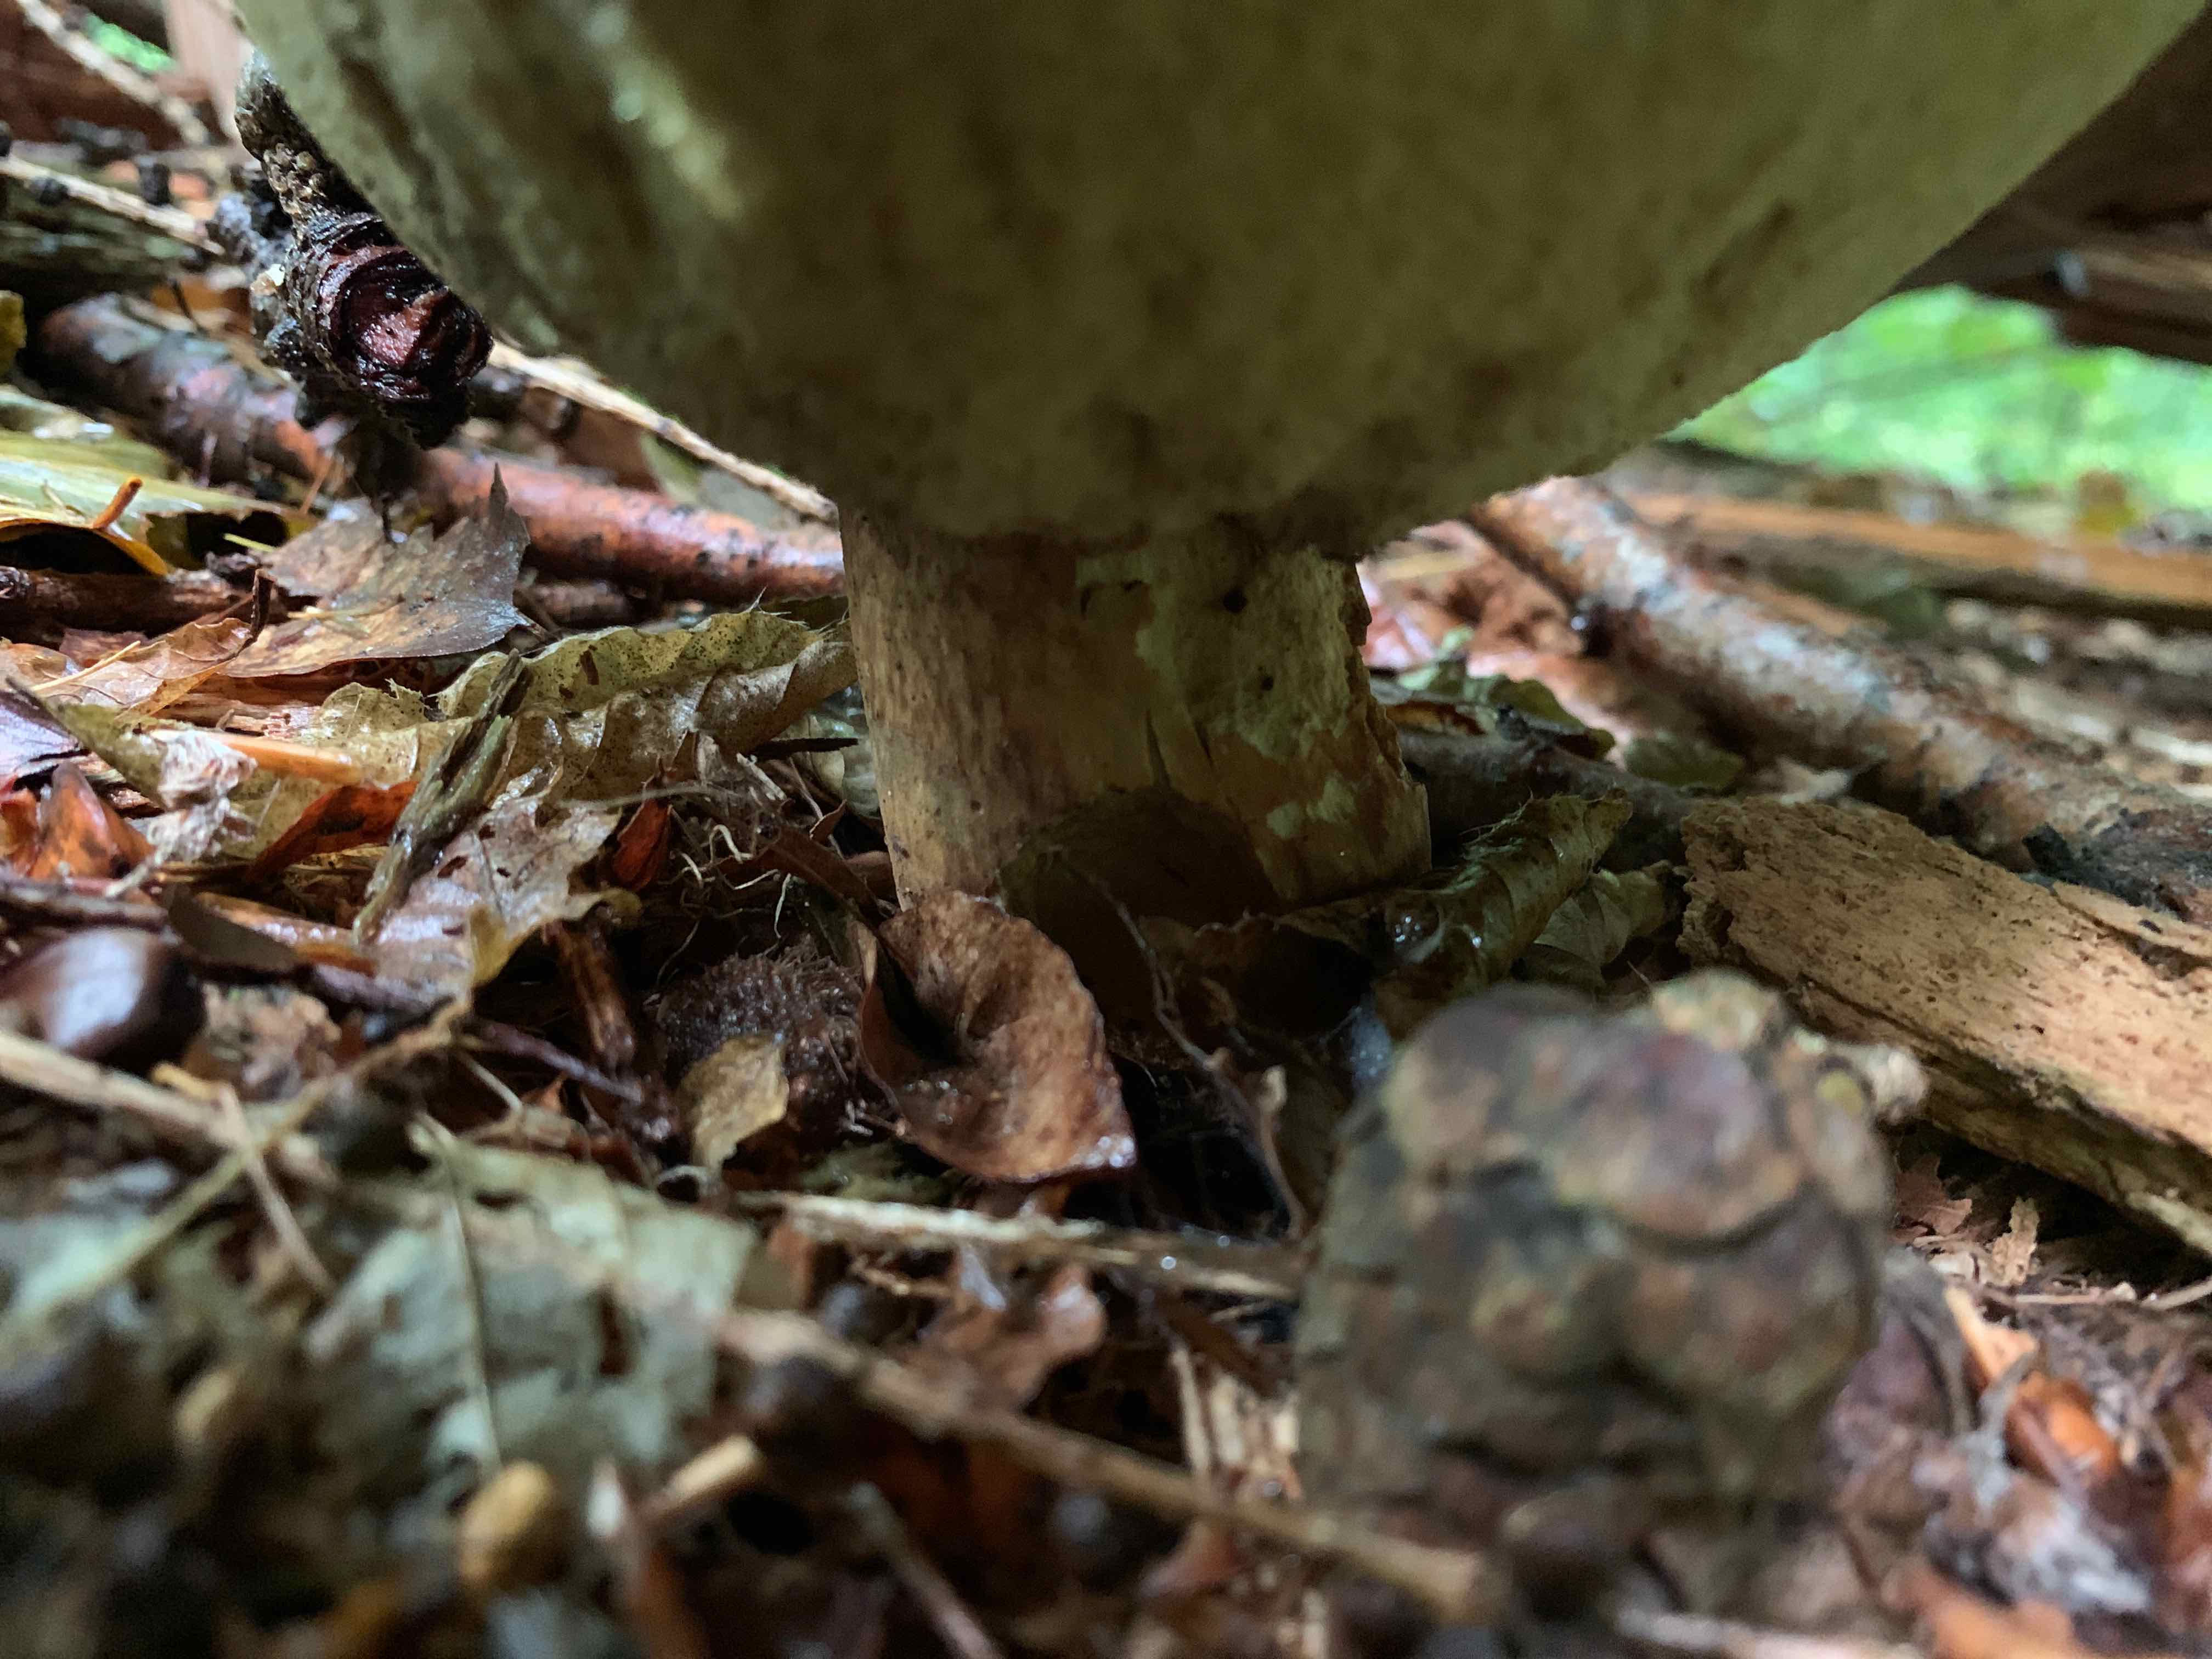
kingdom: Fungi
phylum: Basidiomycota
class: Agaricomycetes
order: Boletales
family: Boletaceae
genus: Boletus
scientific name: Boletus edulis
